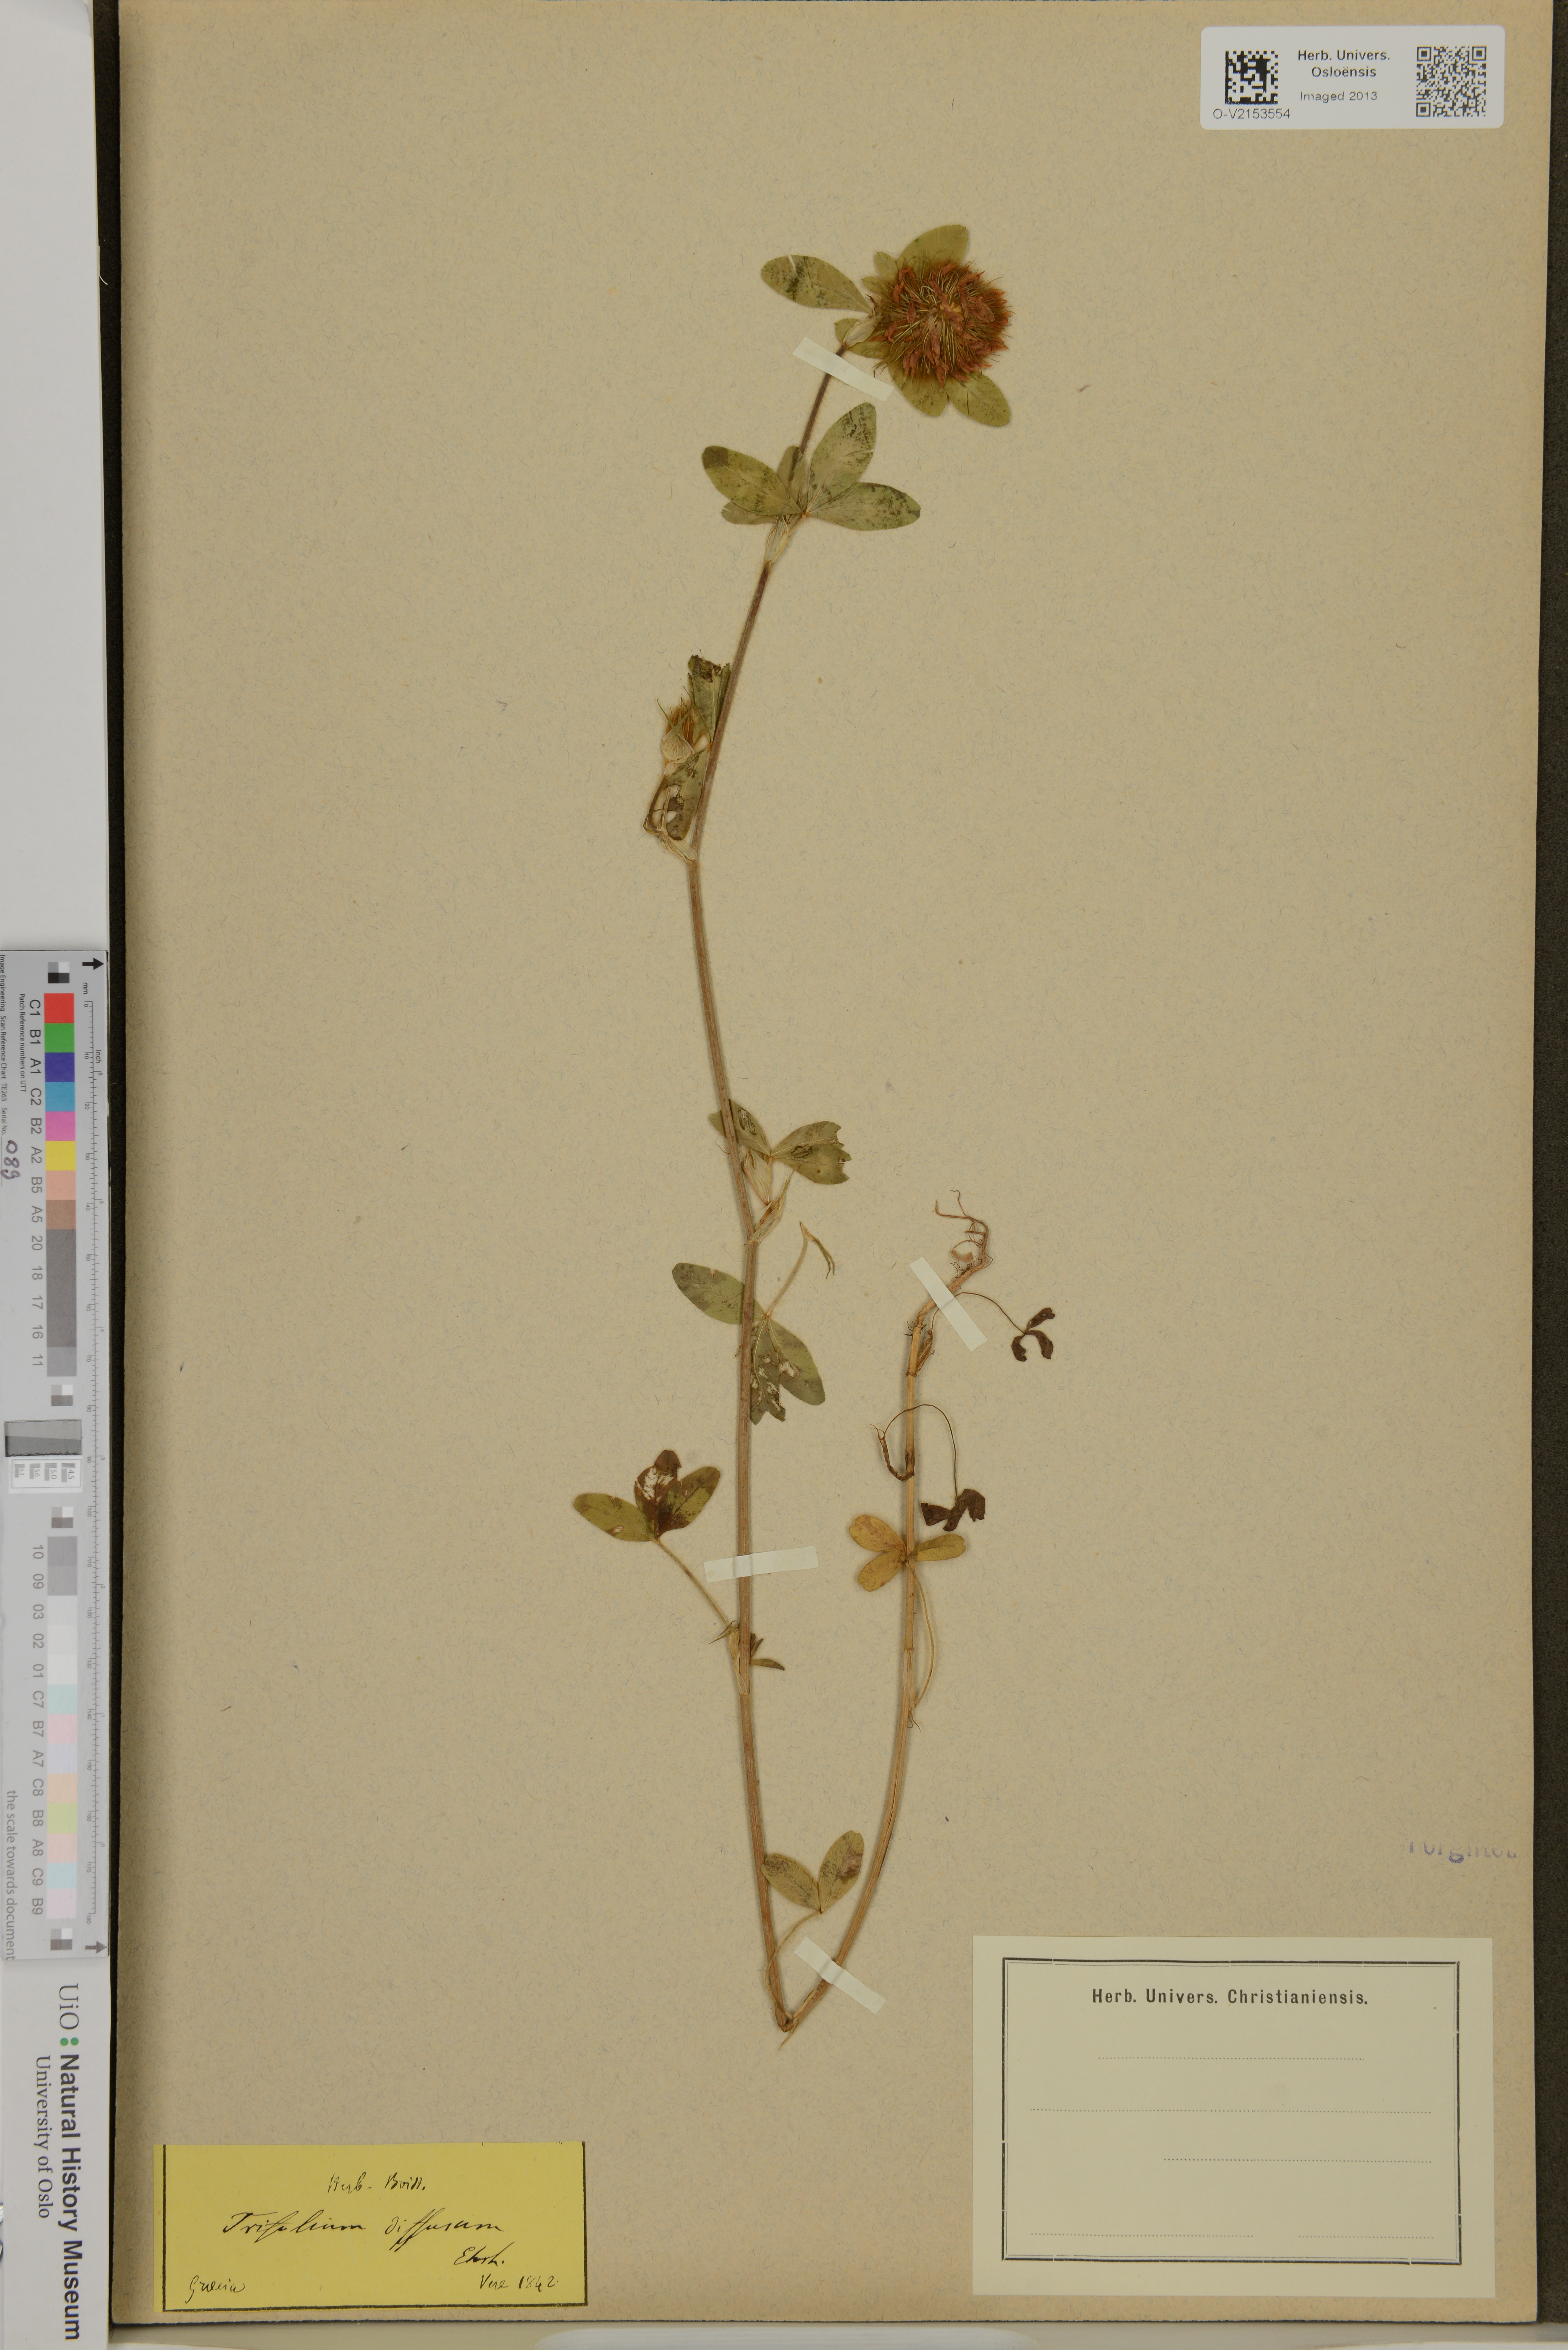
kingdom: Plantae
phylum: Tracheophyta
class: Magnoliopsida
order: Fabales
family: Fabaceae
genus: Trifolium
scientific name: Trifolium diffusum
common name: Diffuse clover
